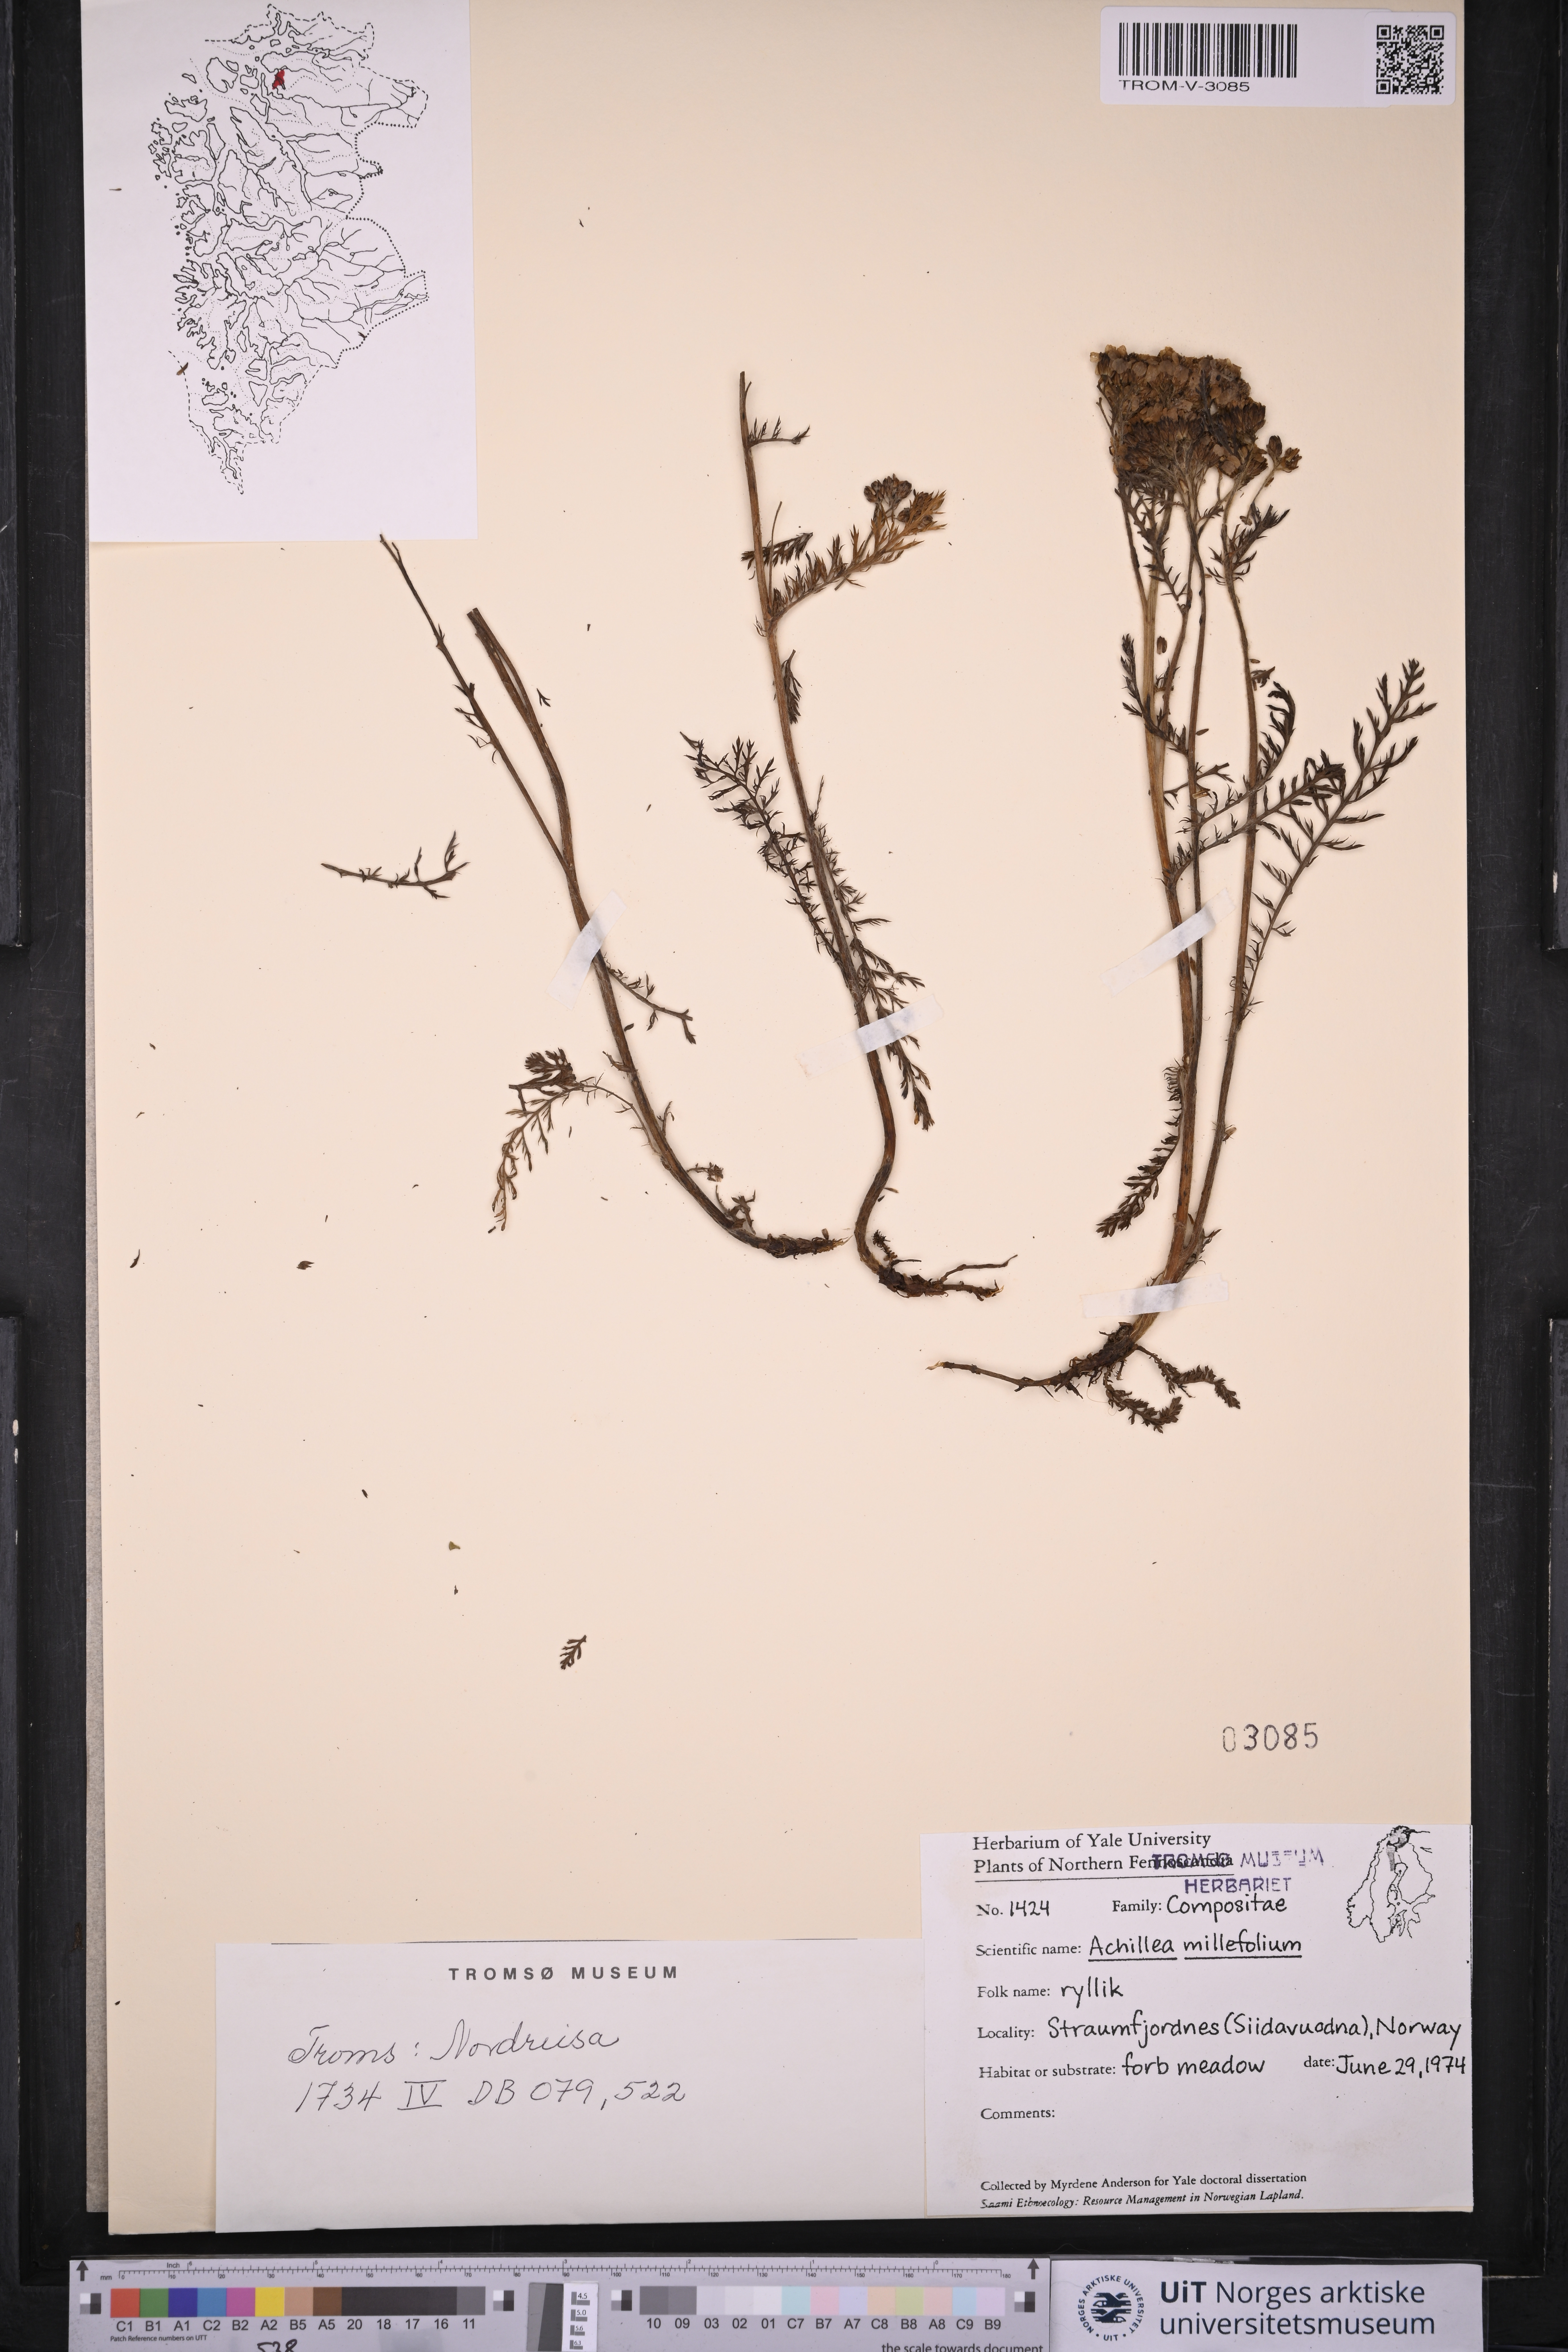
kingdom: Plantae
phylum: Tracheophyta
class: Magnoliopsida
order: Asterales
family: Asteraceae
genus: Achillea
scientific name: Achillea millefolium
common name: Yarrow
